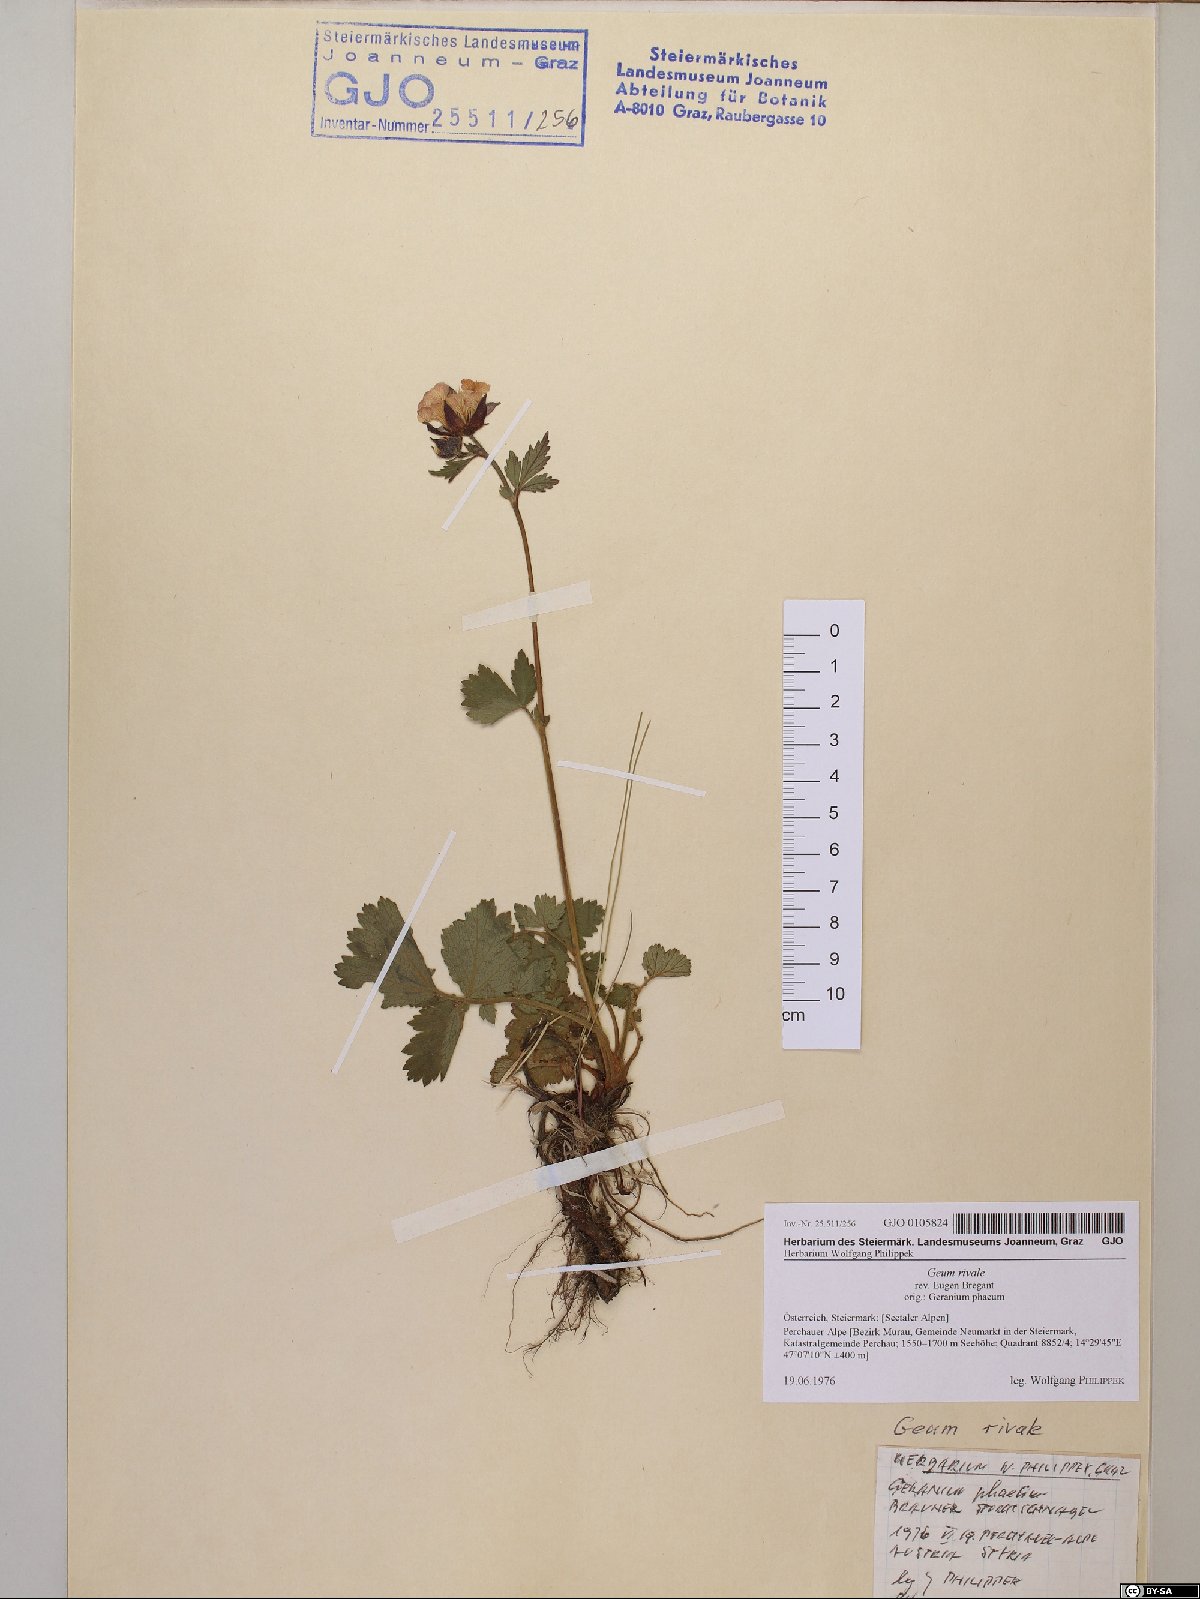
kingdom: Plantae
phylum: Tracheophyta
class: Magnoliopsida
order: Rosales
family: Rosaceae
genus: Geum
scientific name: Geum rivale
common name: Water avens
